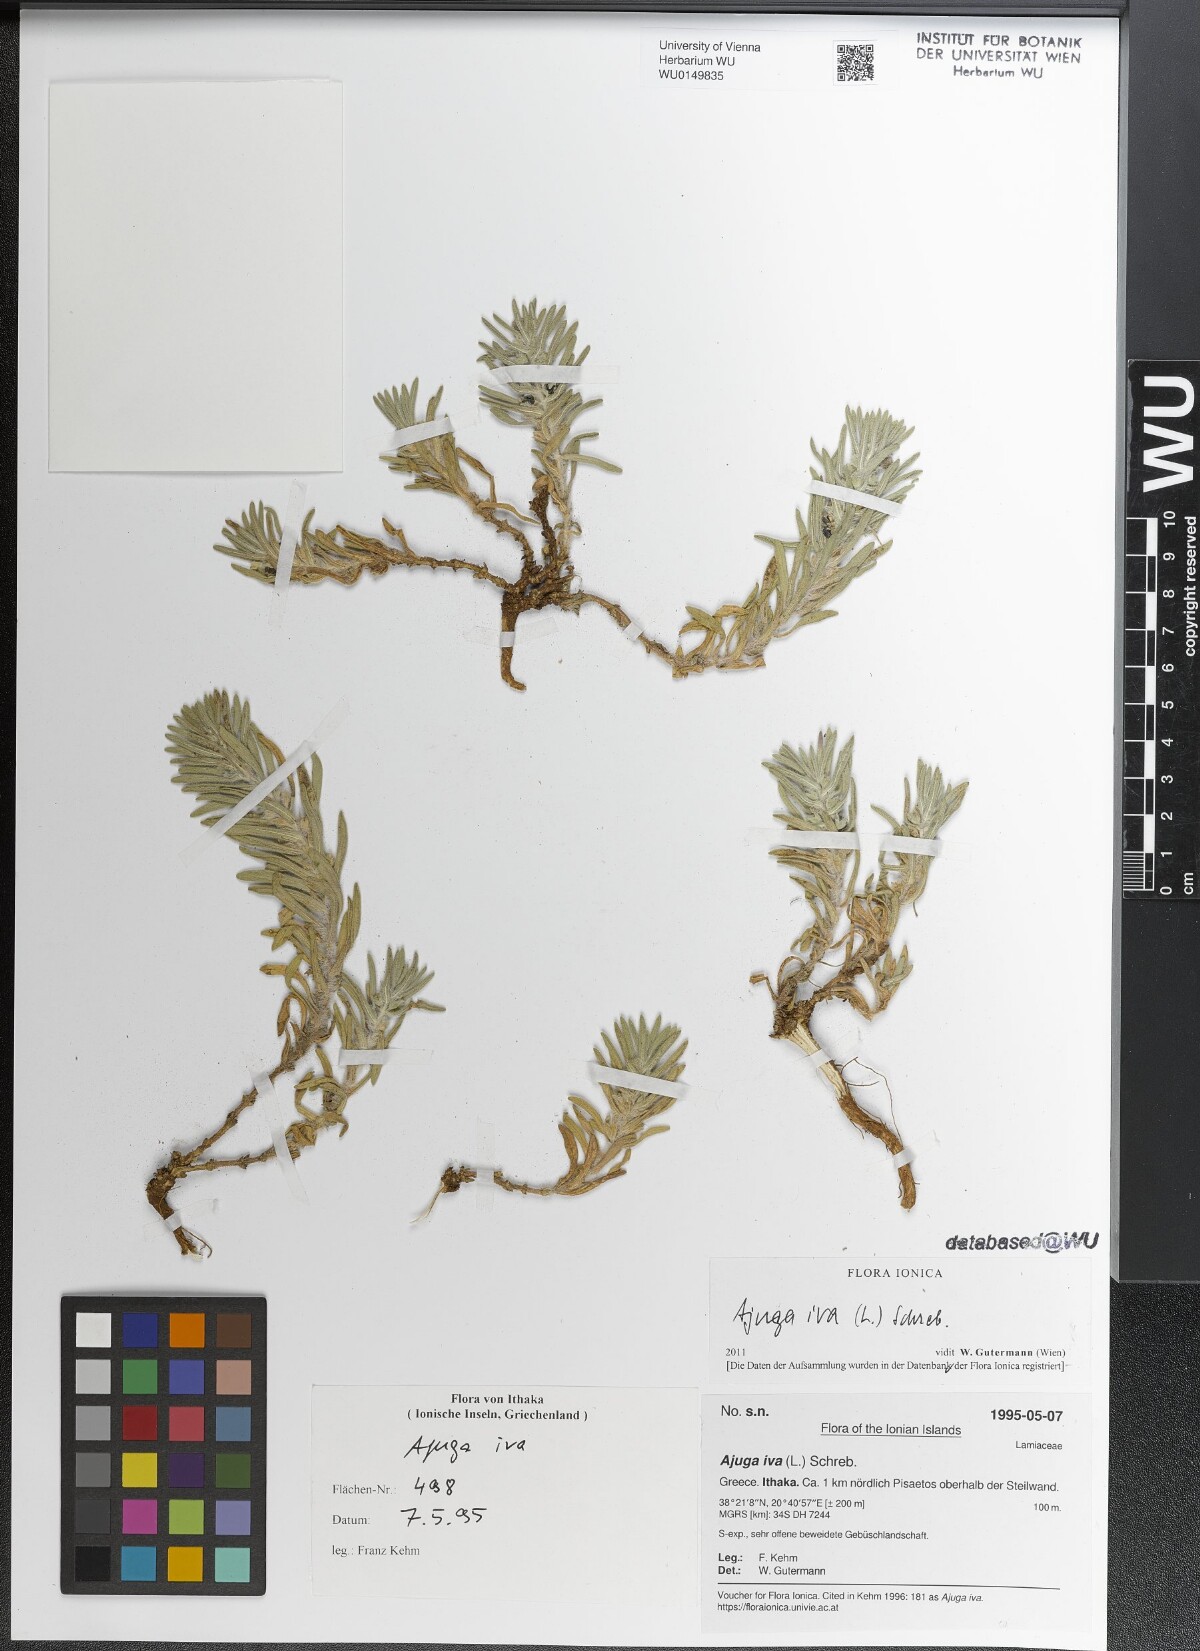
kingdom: Plantae
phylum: Tracheophyta
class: Magnoliopsida
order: Lamiales
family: Lamiaceae
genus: Ajuga
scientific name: Ajuga iva
